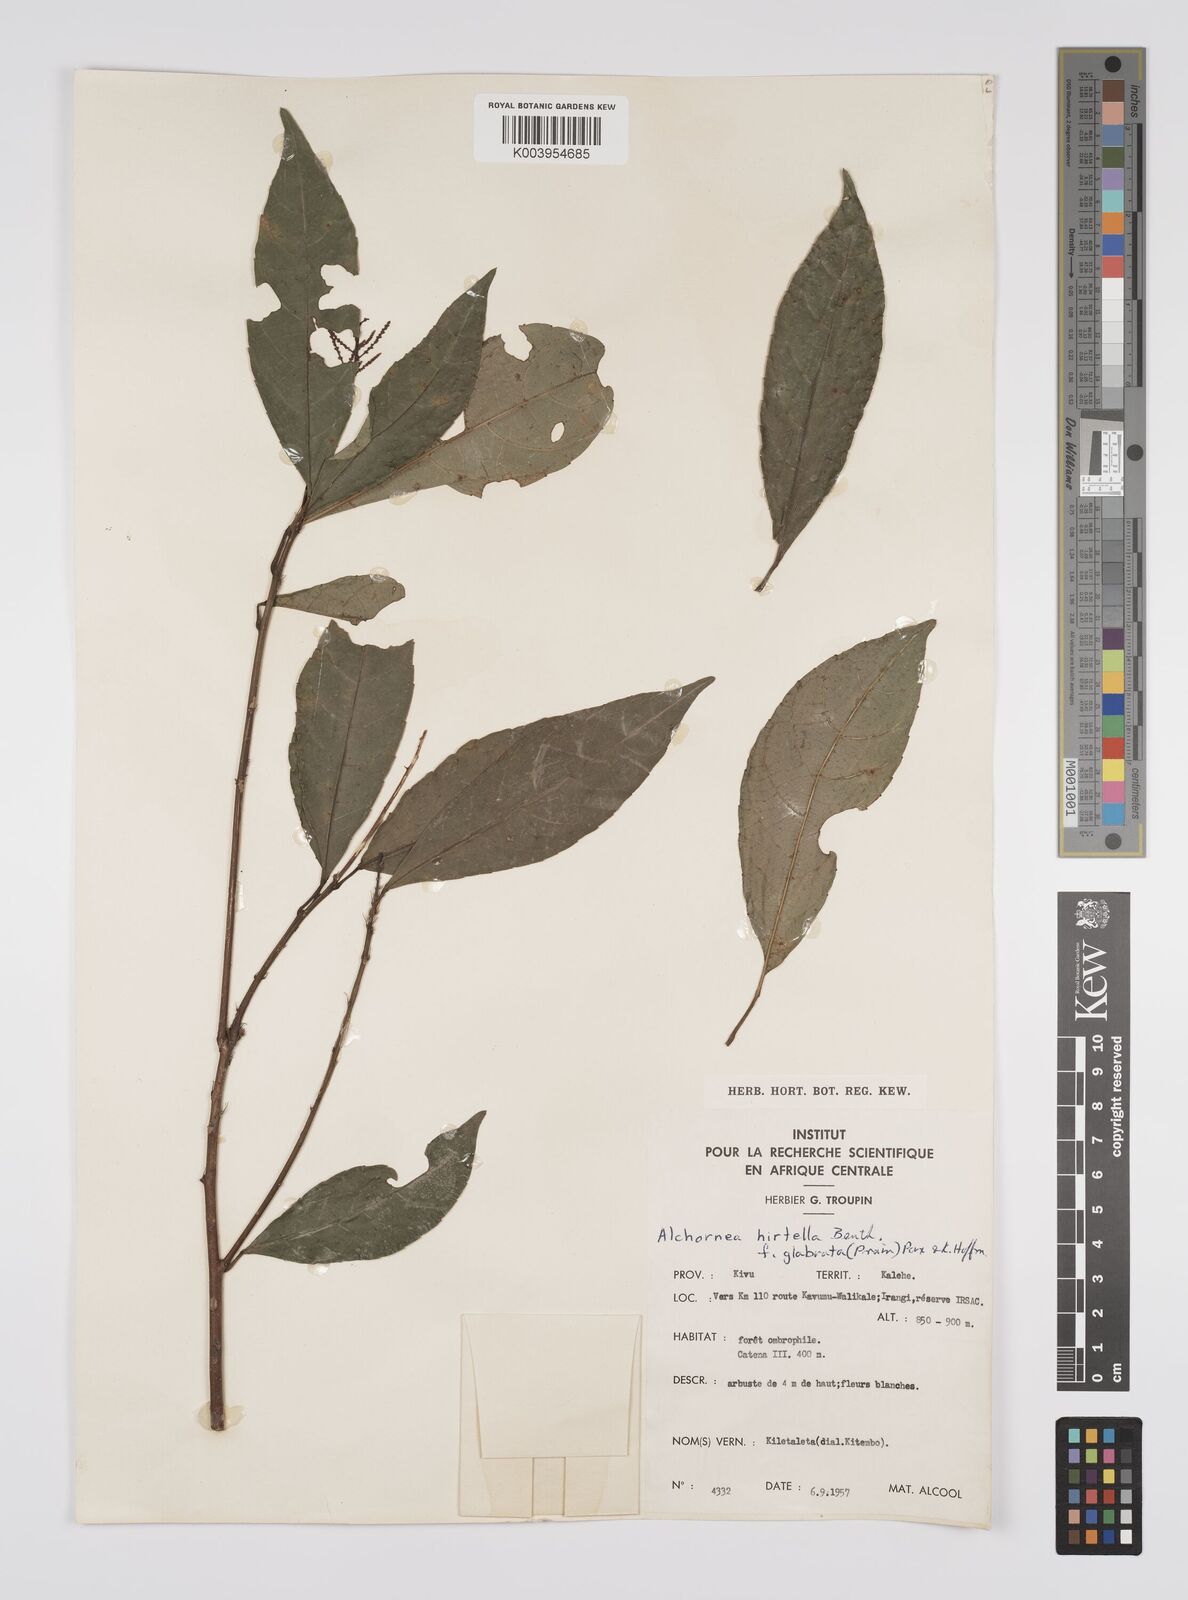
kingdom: Plantae
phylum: Tracheophyta
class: Magnoliopsida
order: Malpighiales
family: Euphorbiaceae
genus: Alchornea
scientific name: Alchornea hirtella
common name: Forest bead-string
